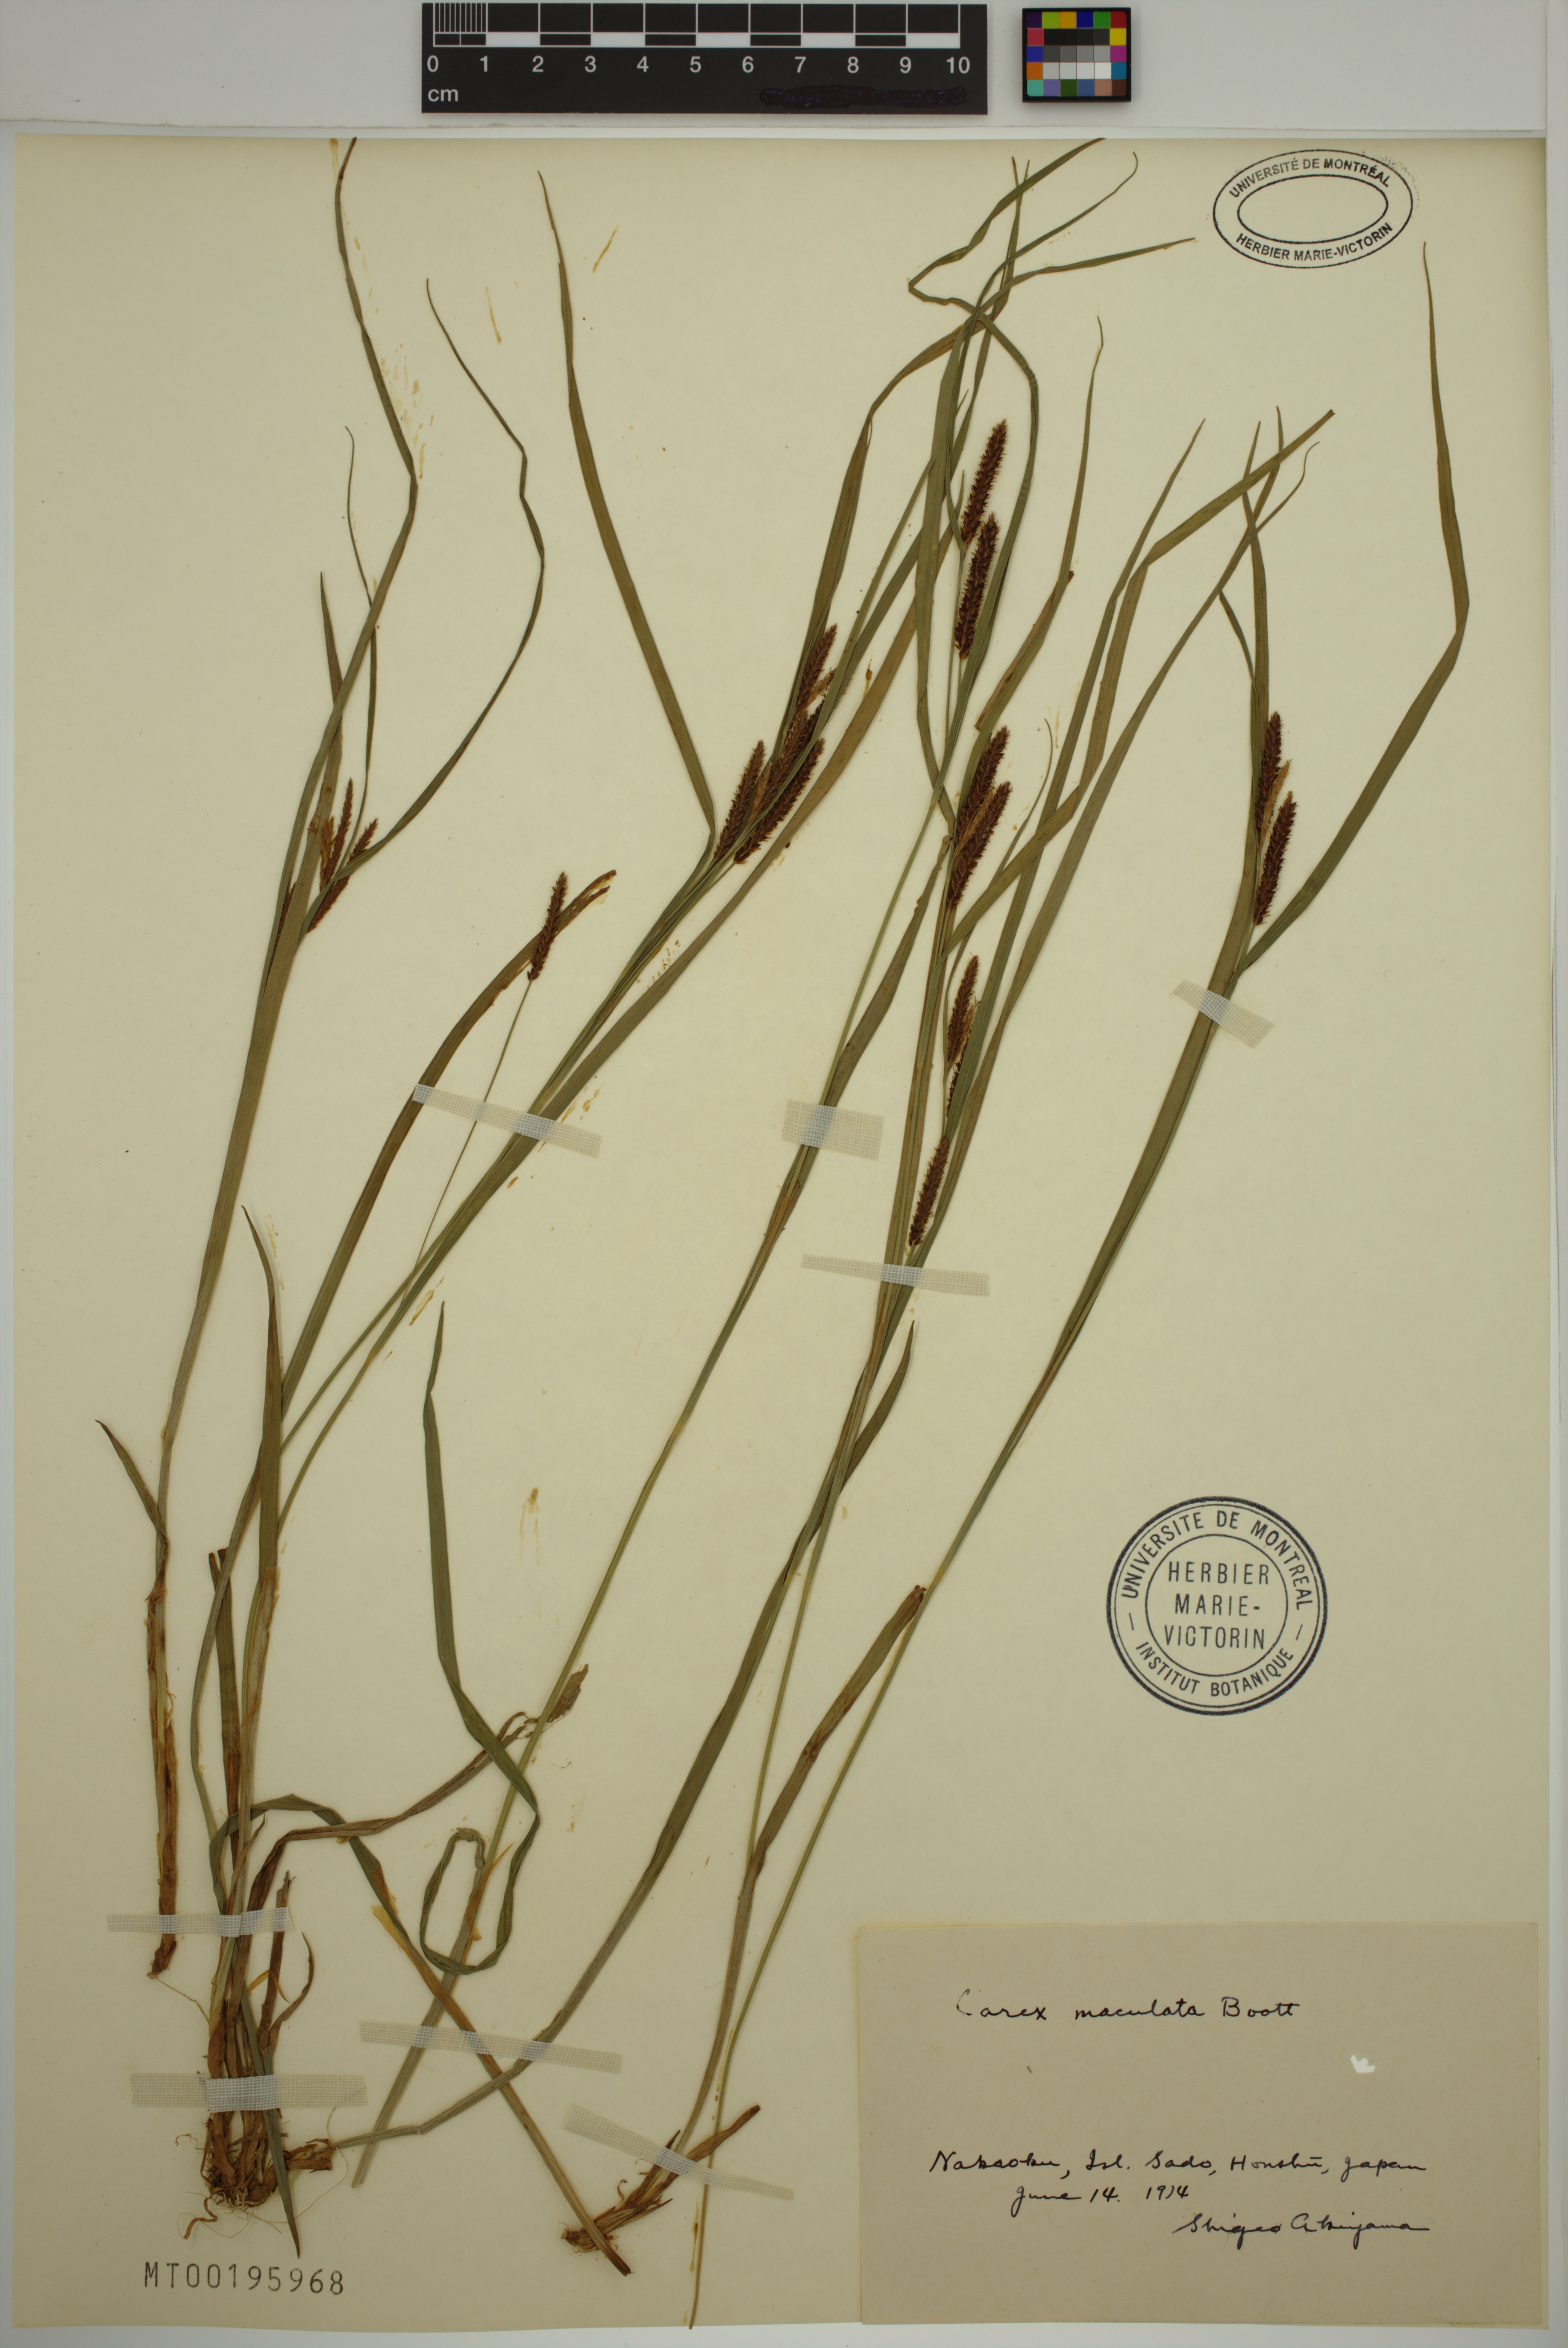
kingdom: Plantae
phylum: Tracheophyta
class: Liliopsida
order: Poales
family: Cyperaceae
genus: Carex
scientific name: Carex maculata
